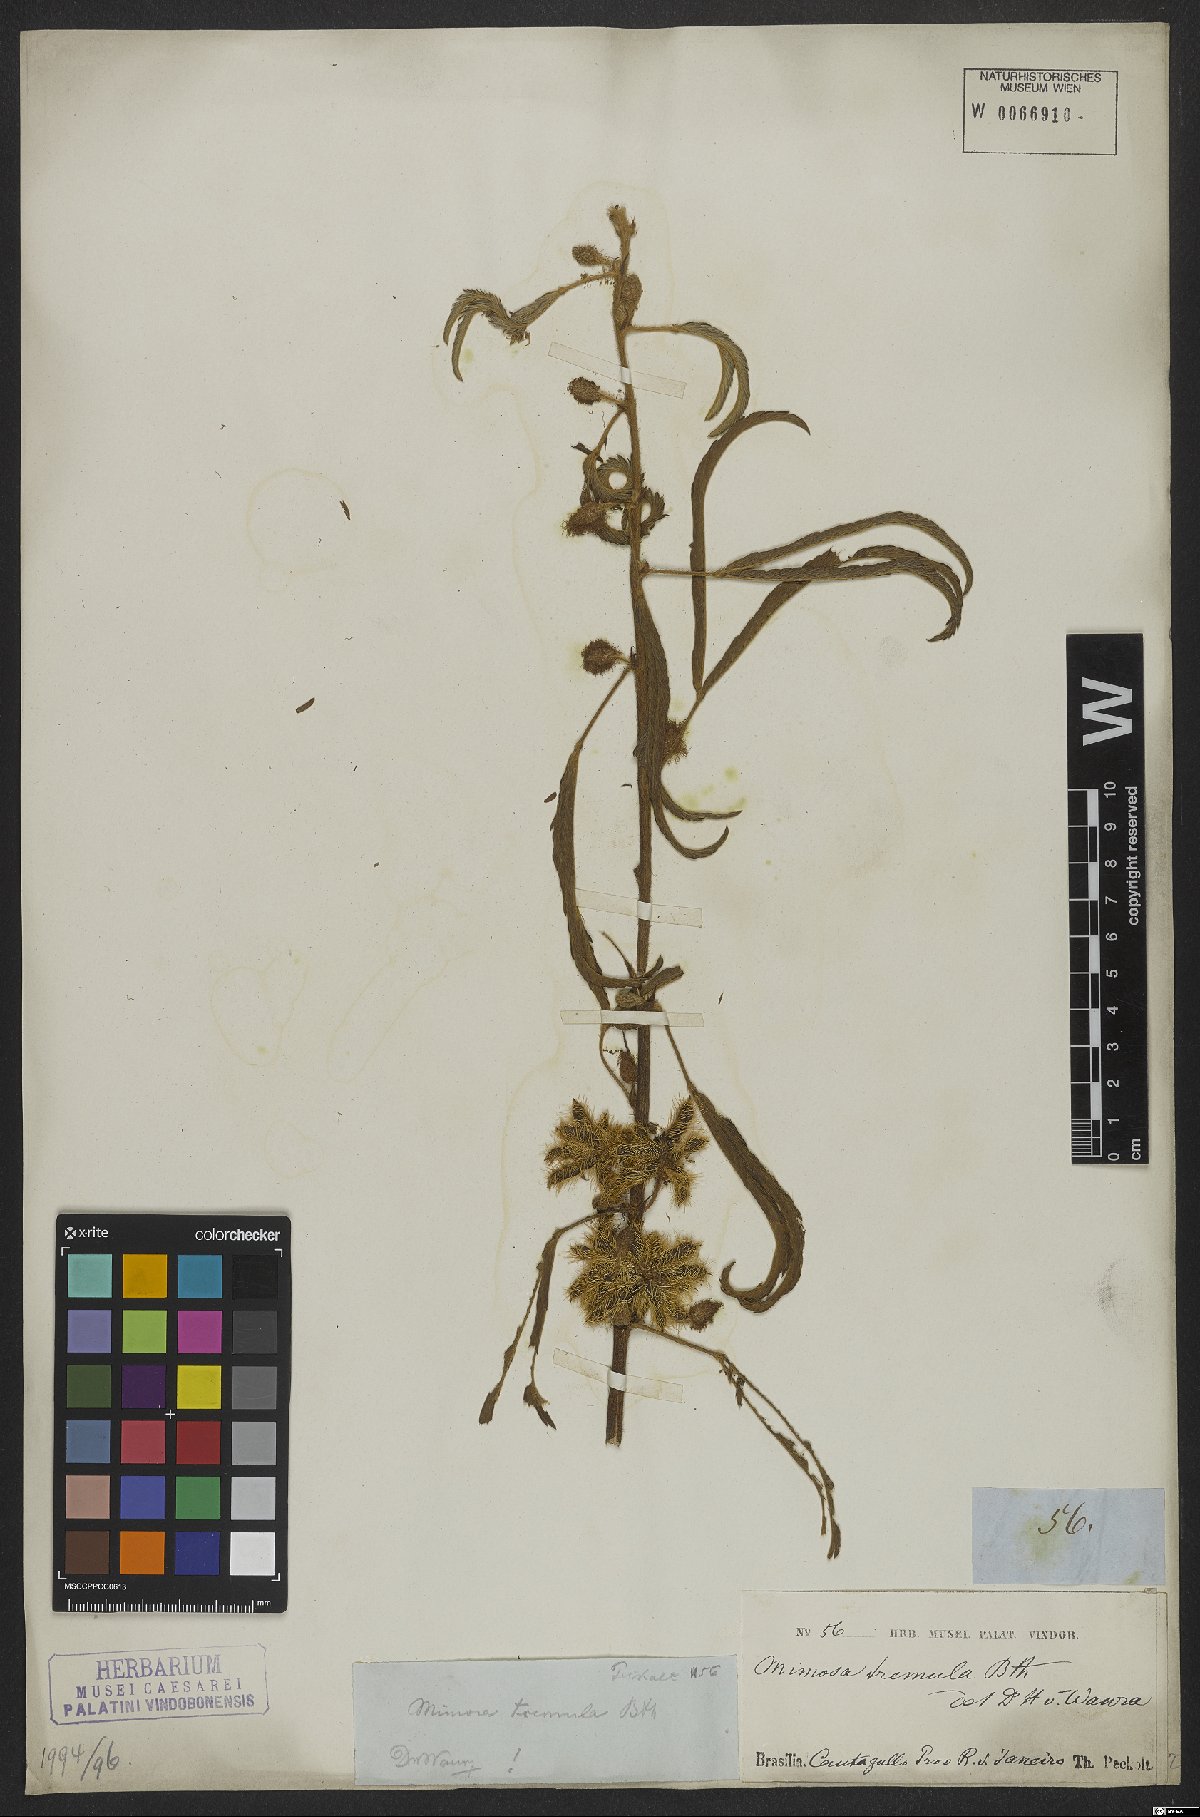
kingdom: Plantae
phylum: Tracheophyta
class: Magnoliopsida
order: Fabales
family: Fabaceae
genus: Mimosa
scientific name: Mimosa xanthocentra
